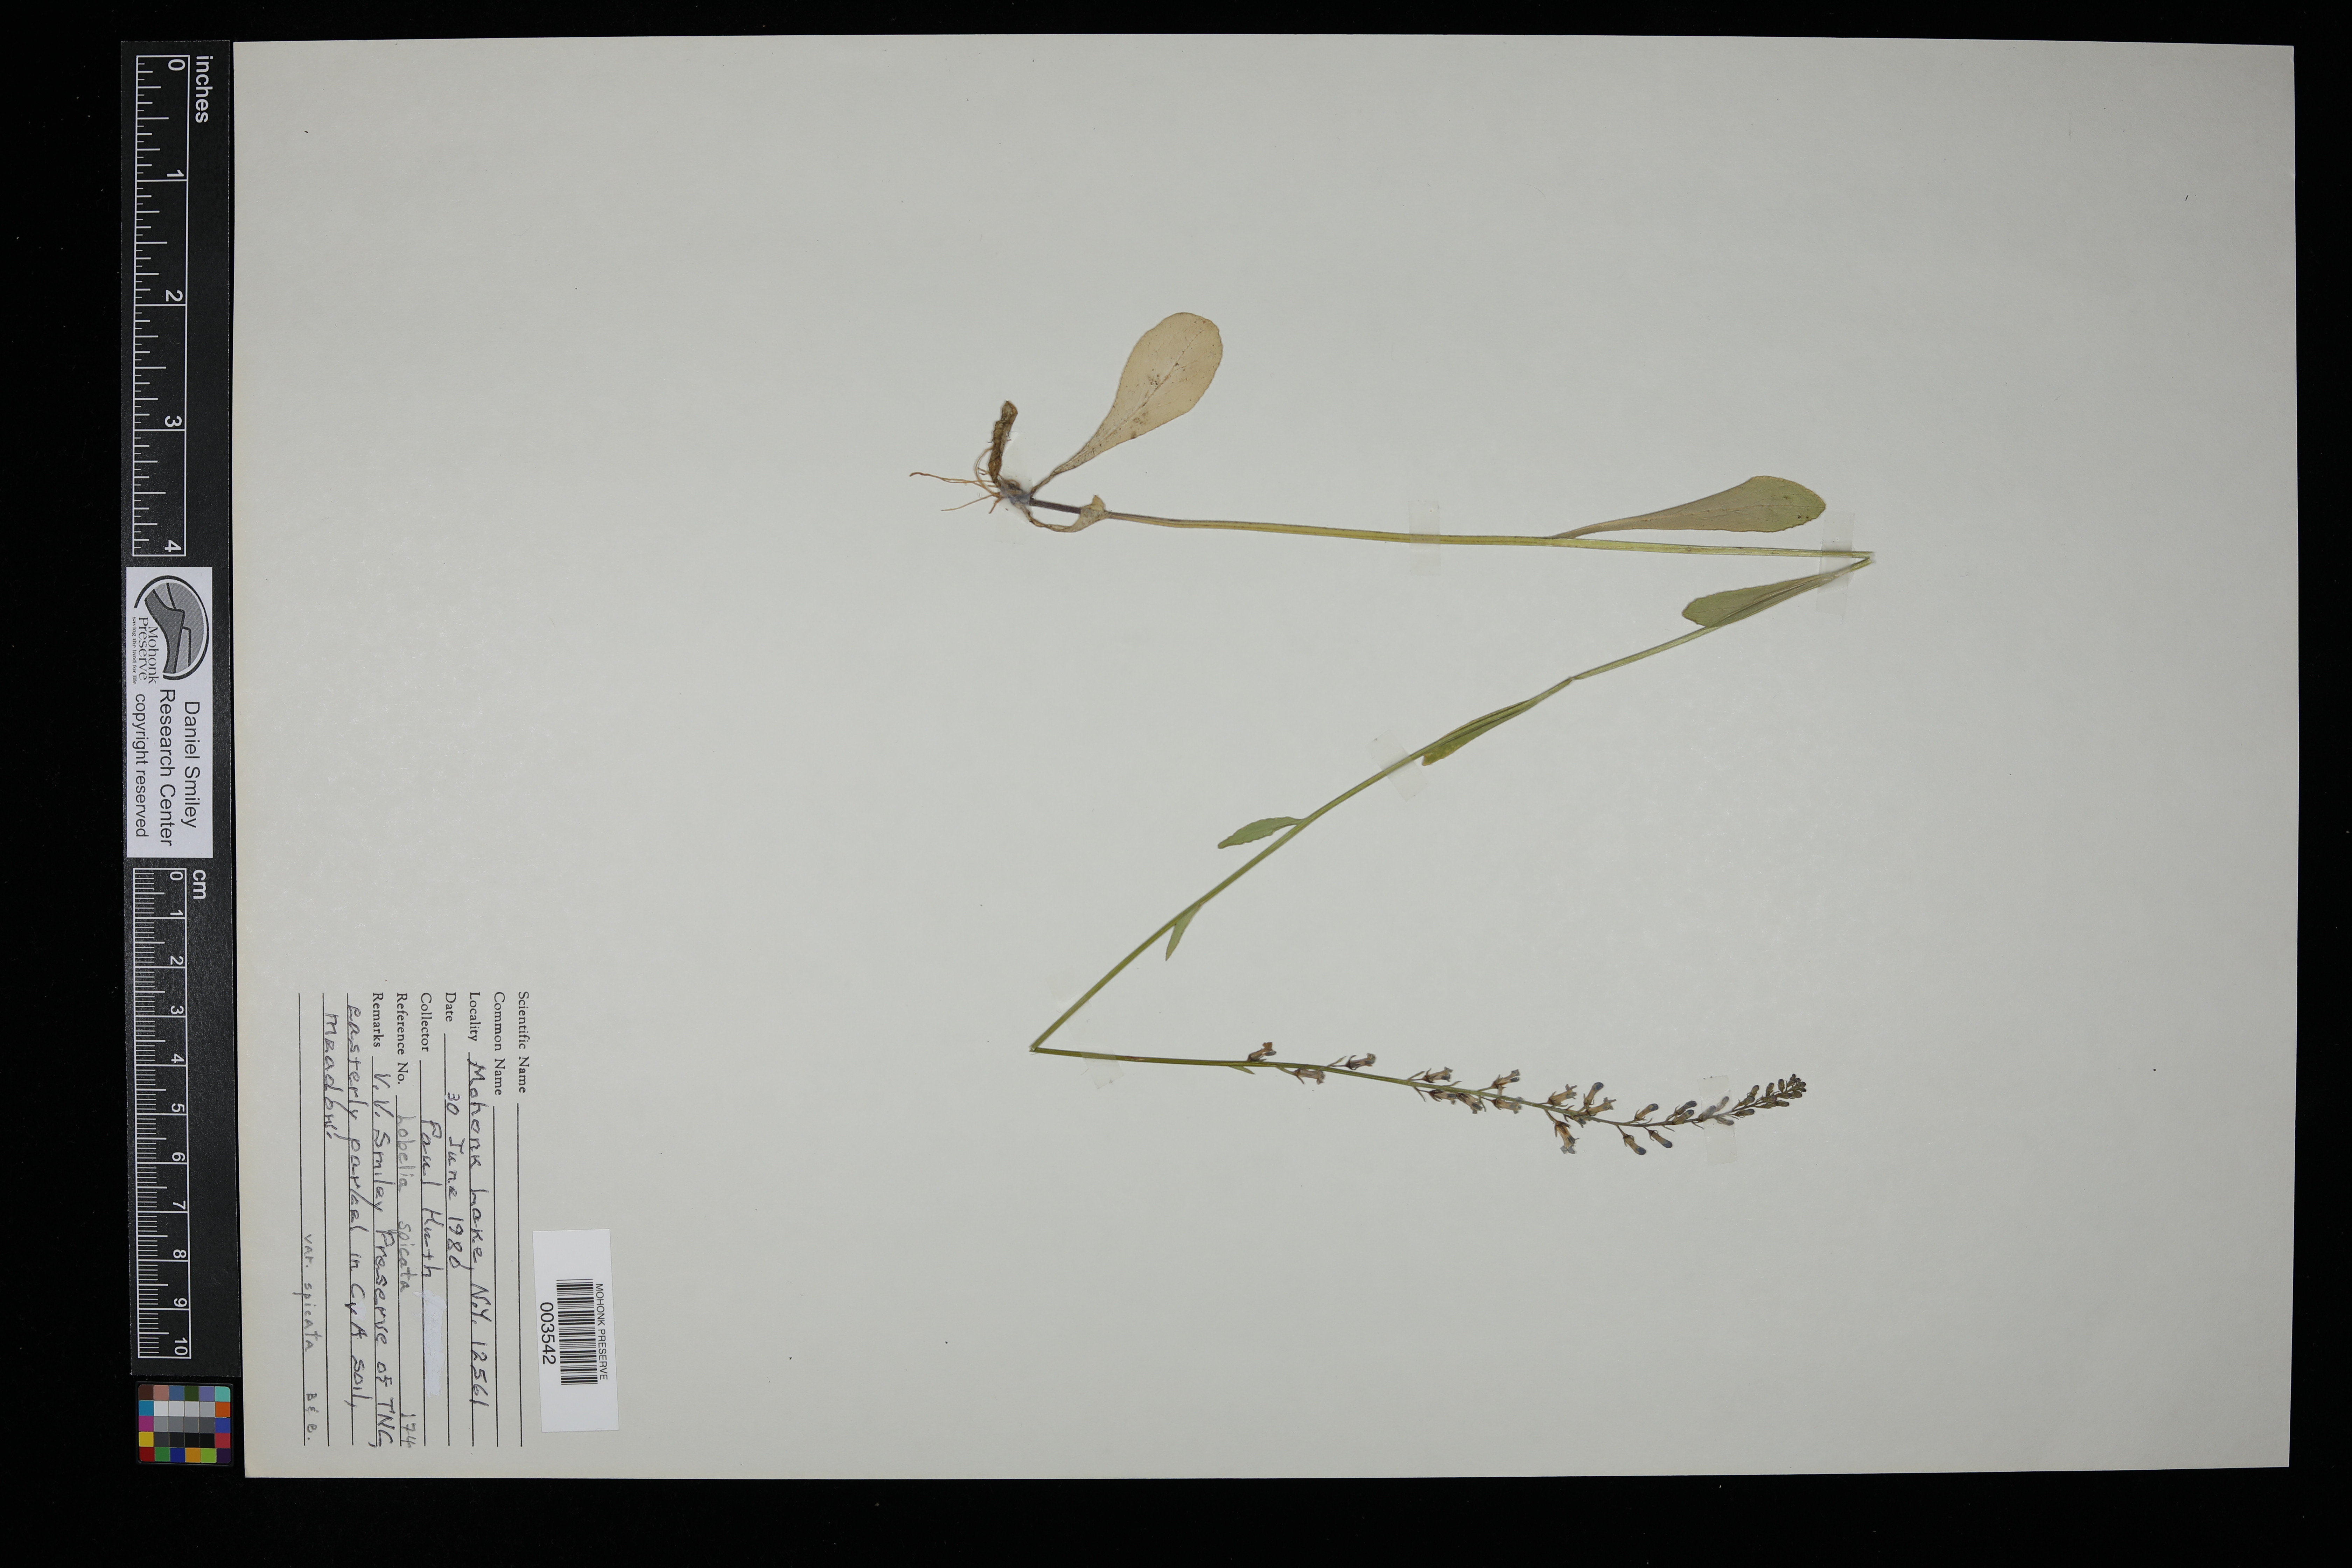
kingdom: Plantae
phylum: Tracheophyta
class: Magnoliopsida
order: Asterales
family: Campanulaceae
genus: Lobelia
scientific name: Lobelia spicata
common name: Pale-spike lobelia
